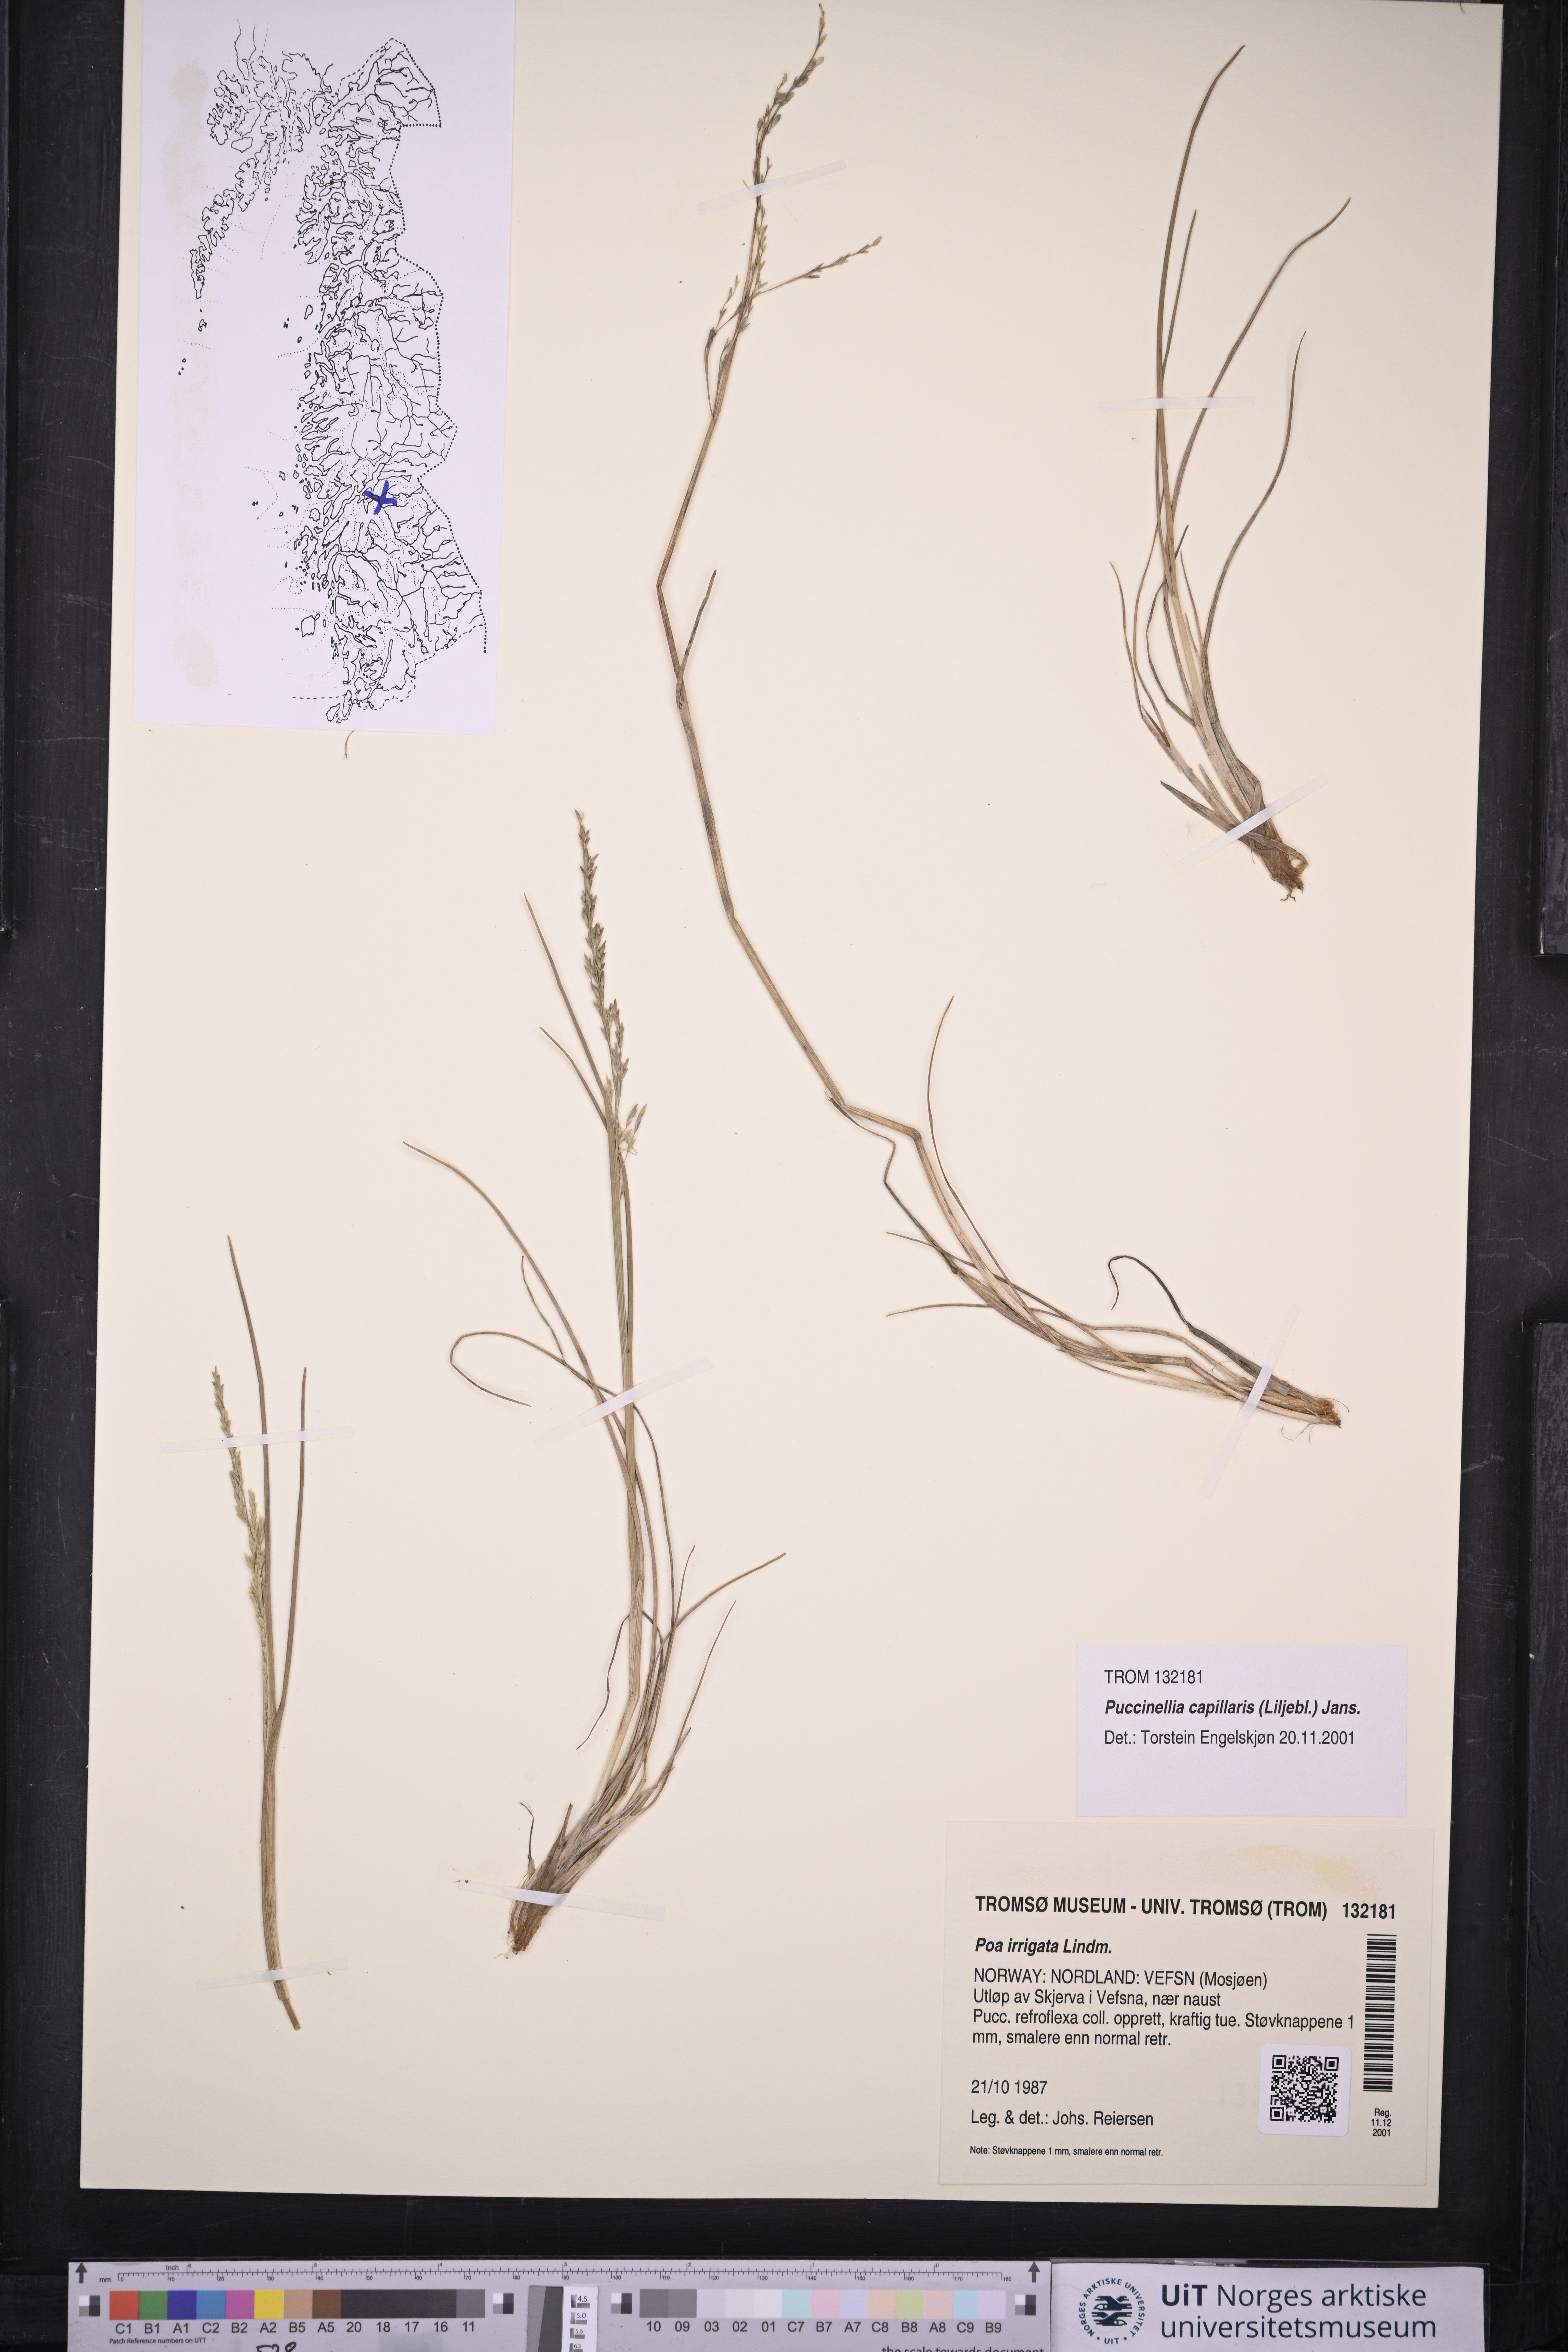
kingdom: Plantae
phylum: Tracheophyta
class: Liliopsida
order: Poales
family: Poaceae
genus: Puccinellia
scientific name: Puccinellia distans
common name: Weeping alkaligrass
